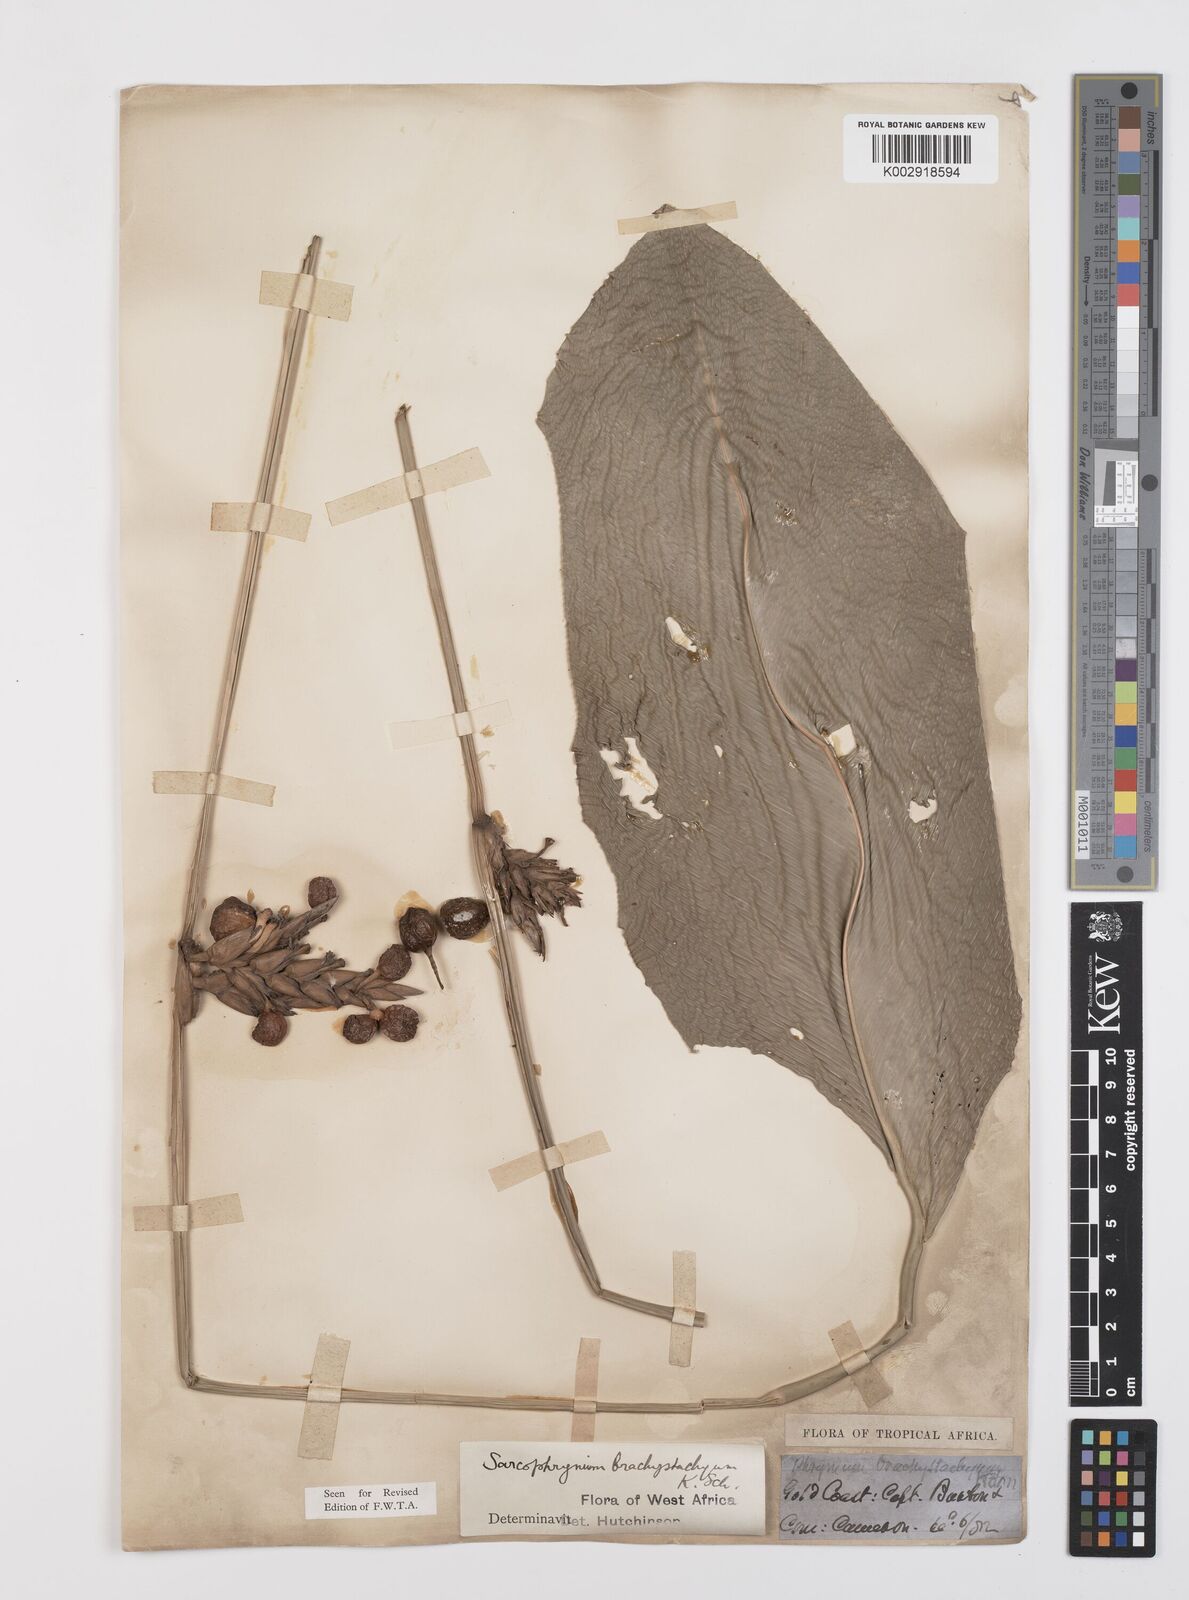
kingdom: Plantae
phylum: Tracheophyta
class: Liliopsida
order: Zingiberales
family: Marantaceae
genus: Sarcophrynium
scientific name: Sarcophrynium brachystachyum
